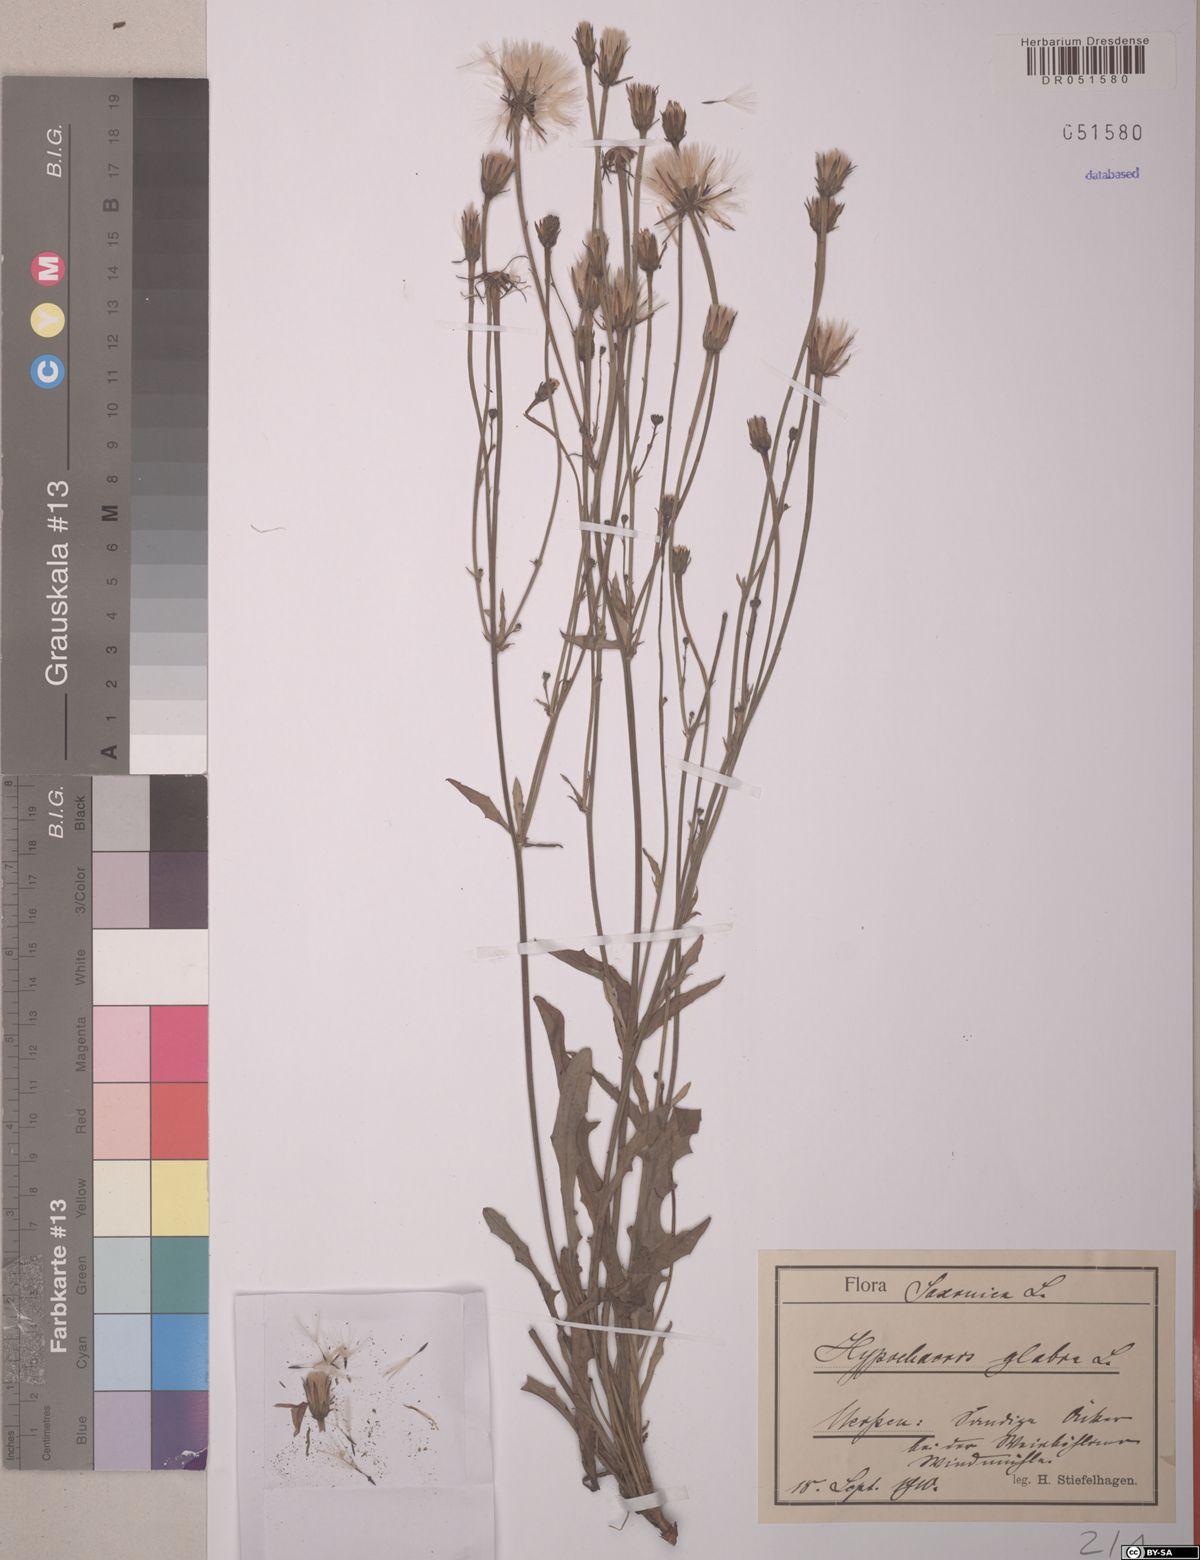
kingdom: Plantae
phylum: Tracheophyta
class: Magnoliopsida
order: Asterales
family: Asteraceae
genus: Hypochaeris
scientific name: Hypochaeris glabra
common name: Smooth catsear
